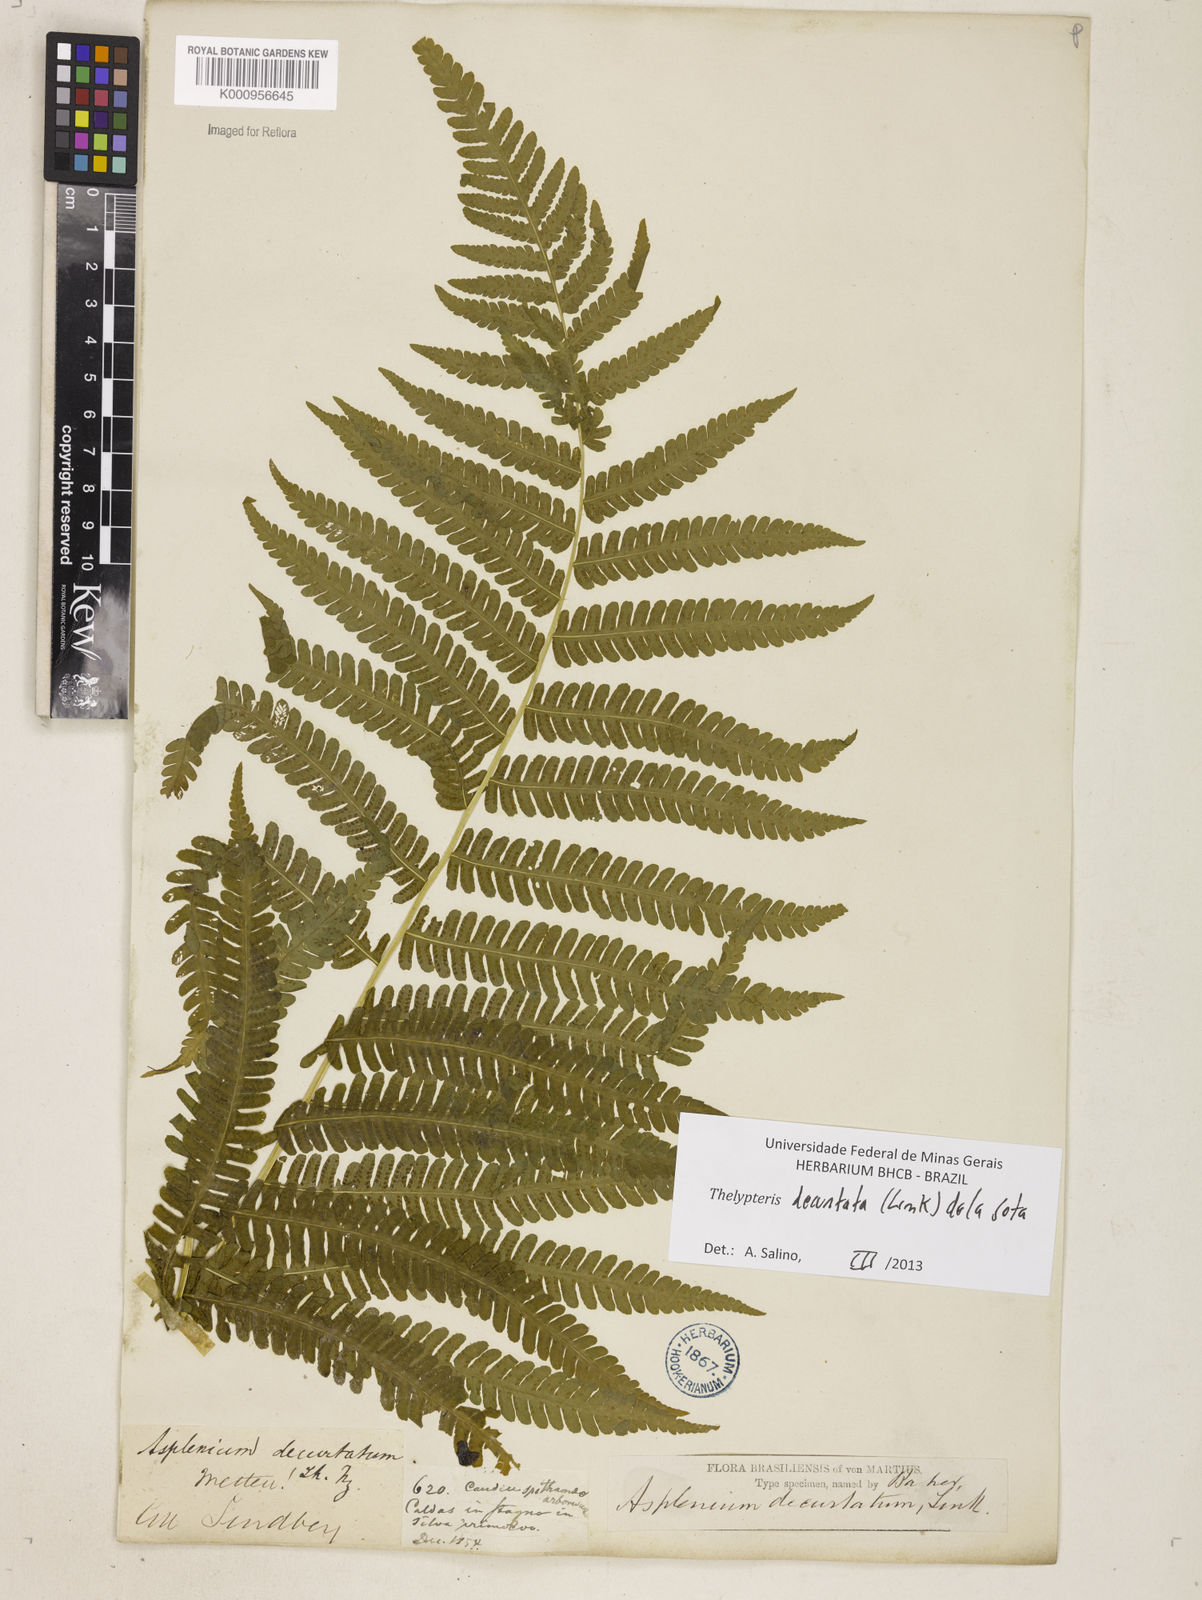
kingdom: Plantae
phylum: Tracheophyta
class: Polypodiopsida
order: Polypodiales
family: Thelypteridaceae
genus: Amauropelta
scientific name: Amauropelta decurtata
